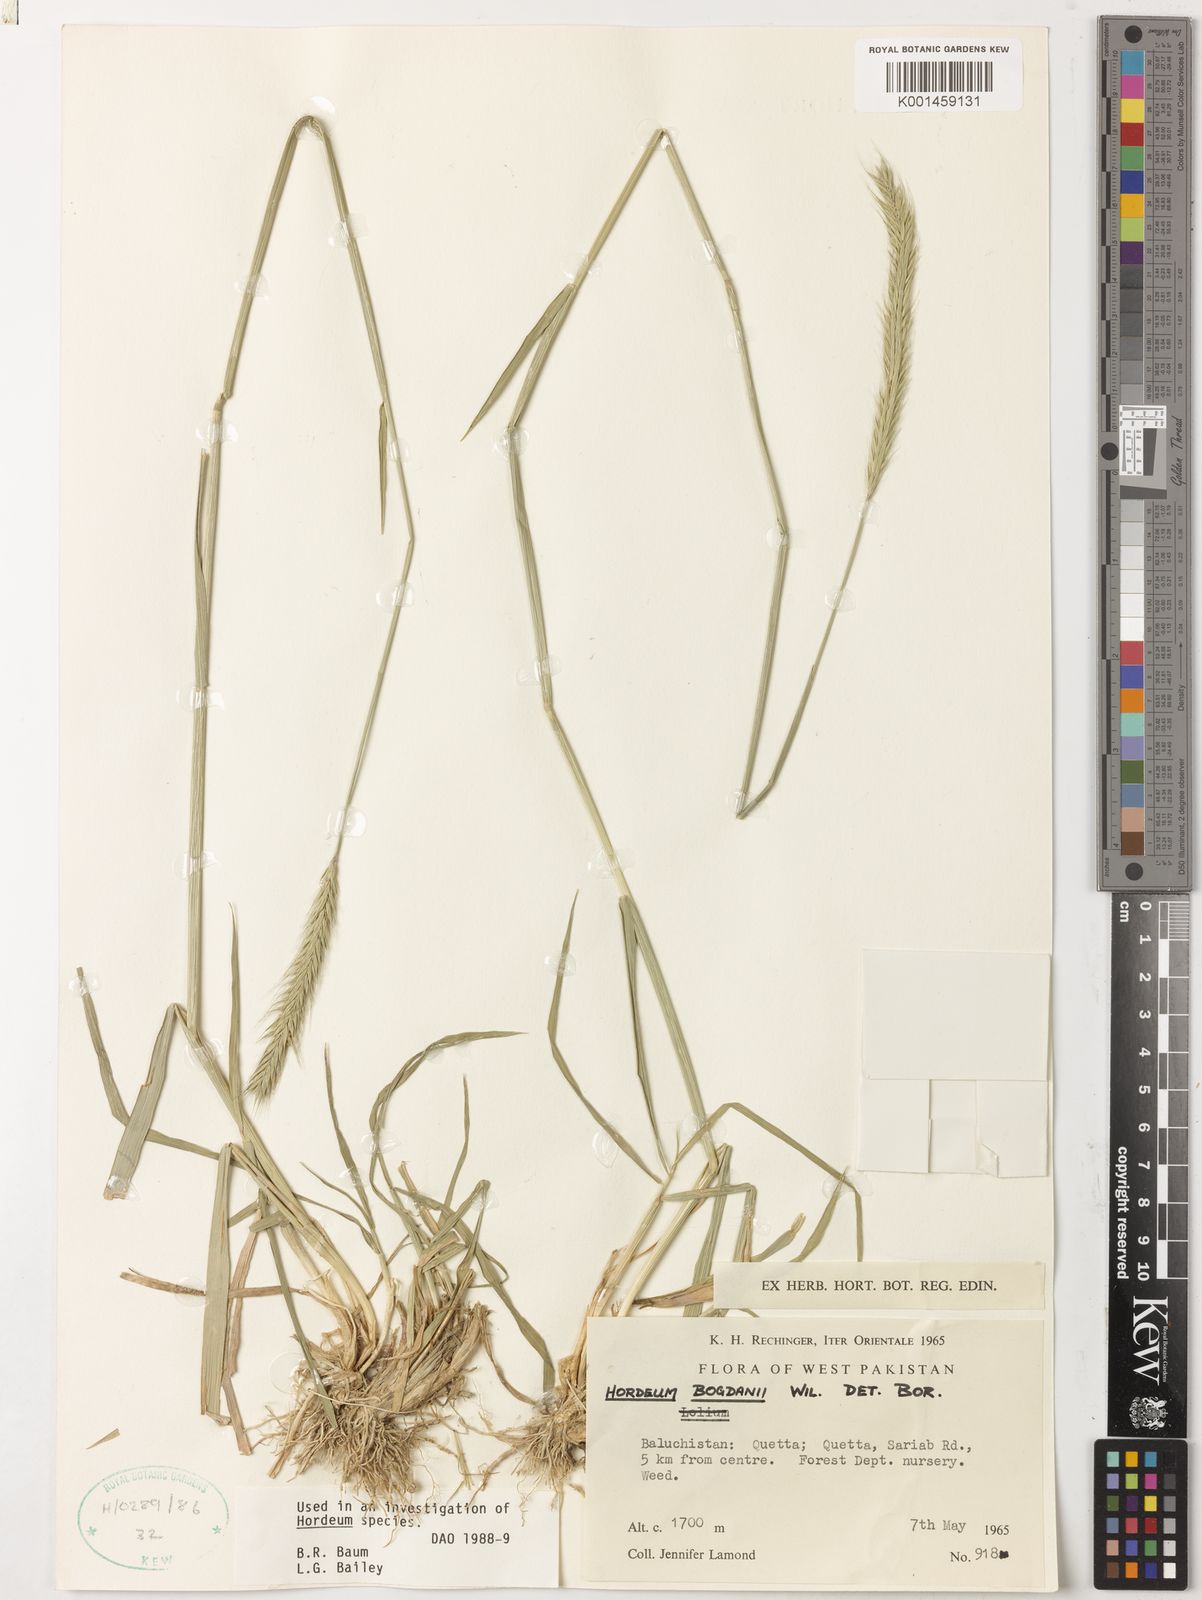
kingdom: Plantae
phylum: Tracheophyta
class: Liliopsida
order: Poales
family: Poaceae
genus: Hordeum
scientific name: Hordeum bogdanii
